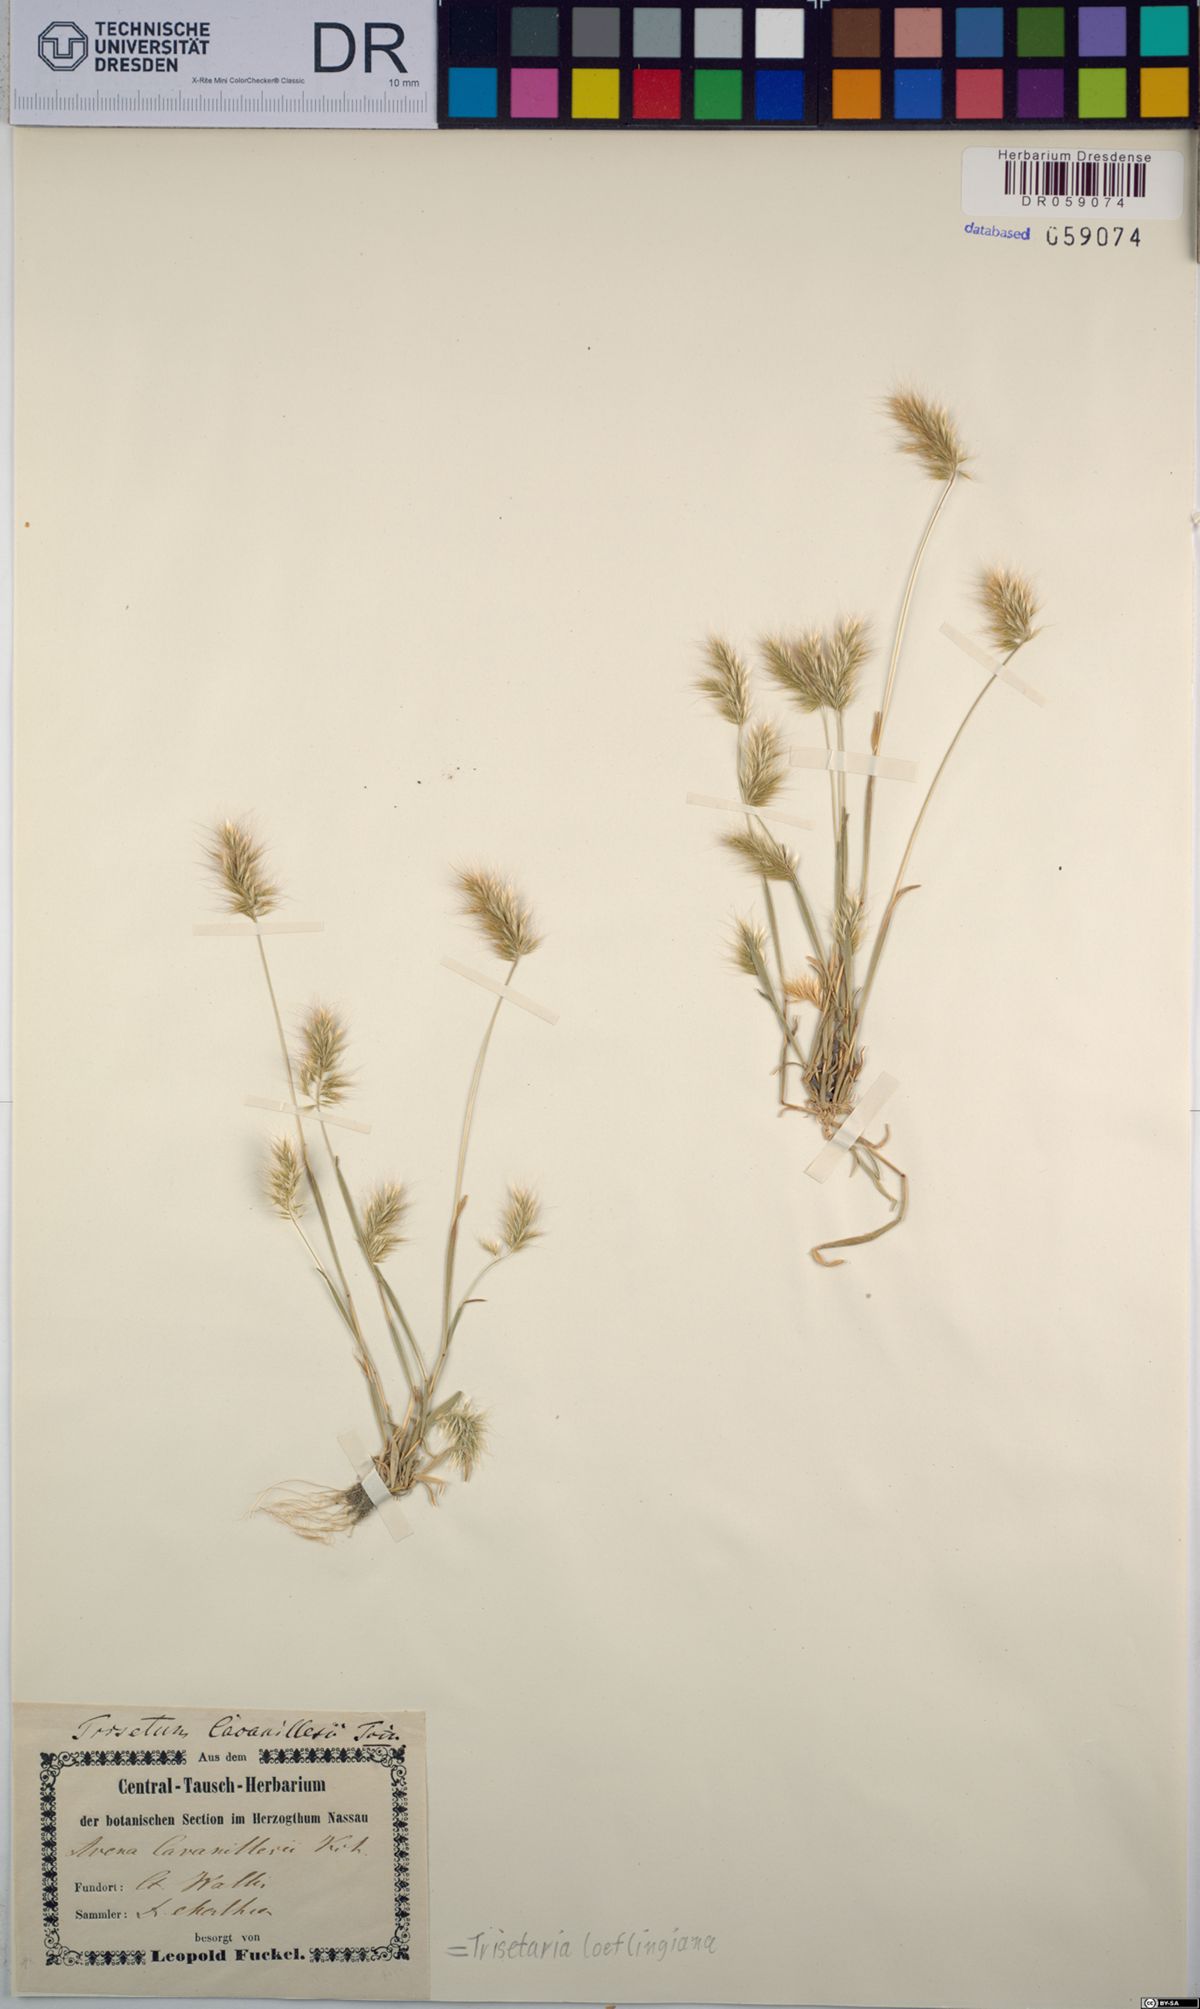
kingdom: Plantae
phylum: Tracheophyta
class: Liliopsida
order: Poales
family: Poaceae
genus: Trisetaria
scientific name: Trisetaria loeflingiana
